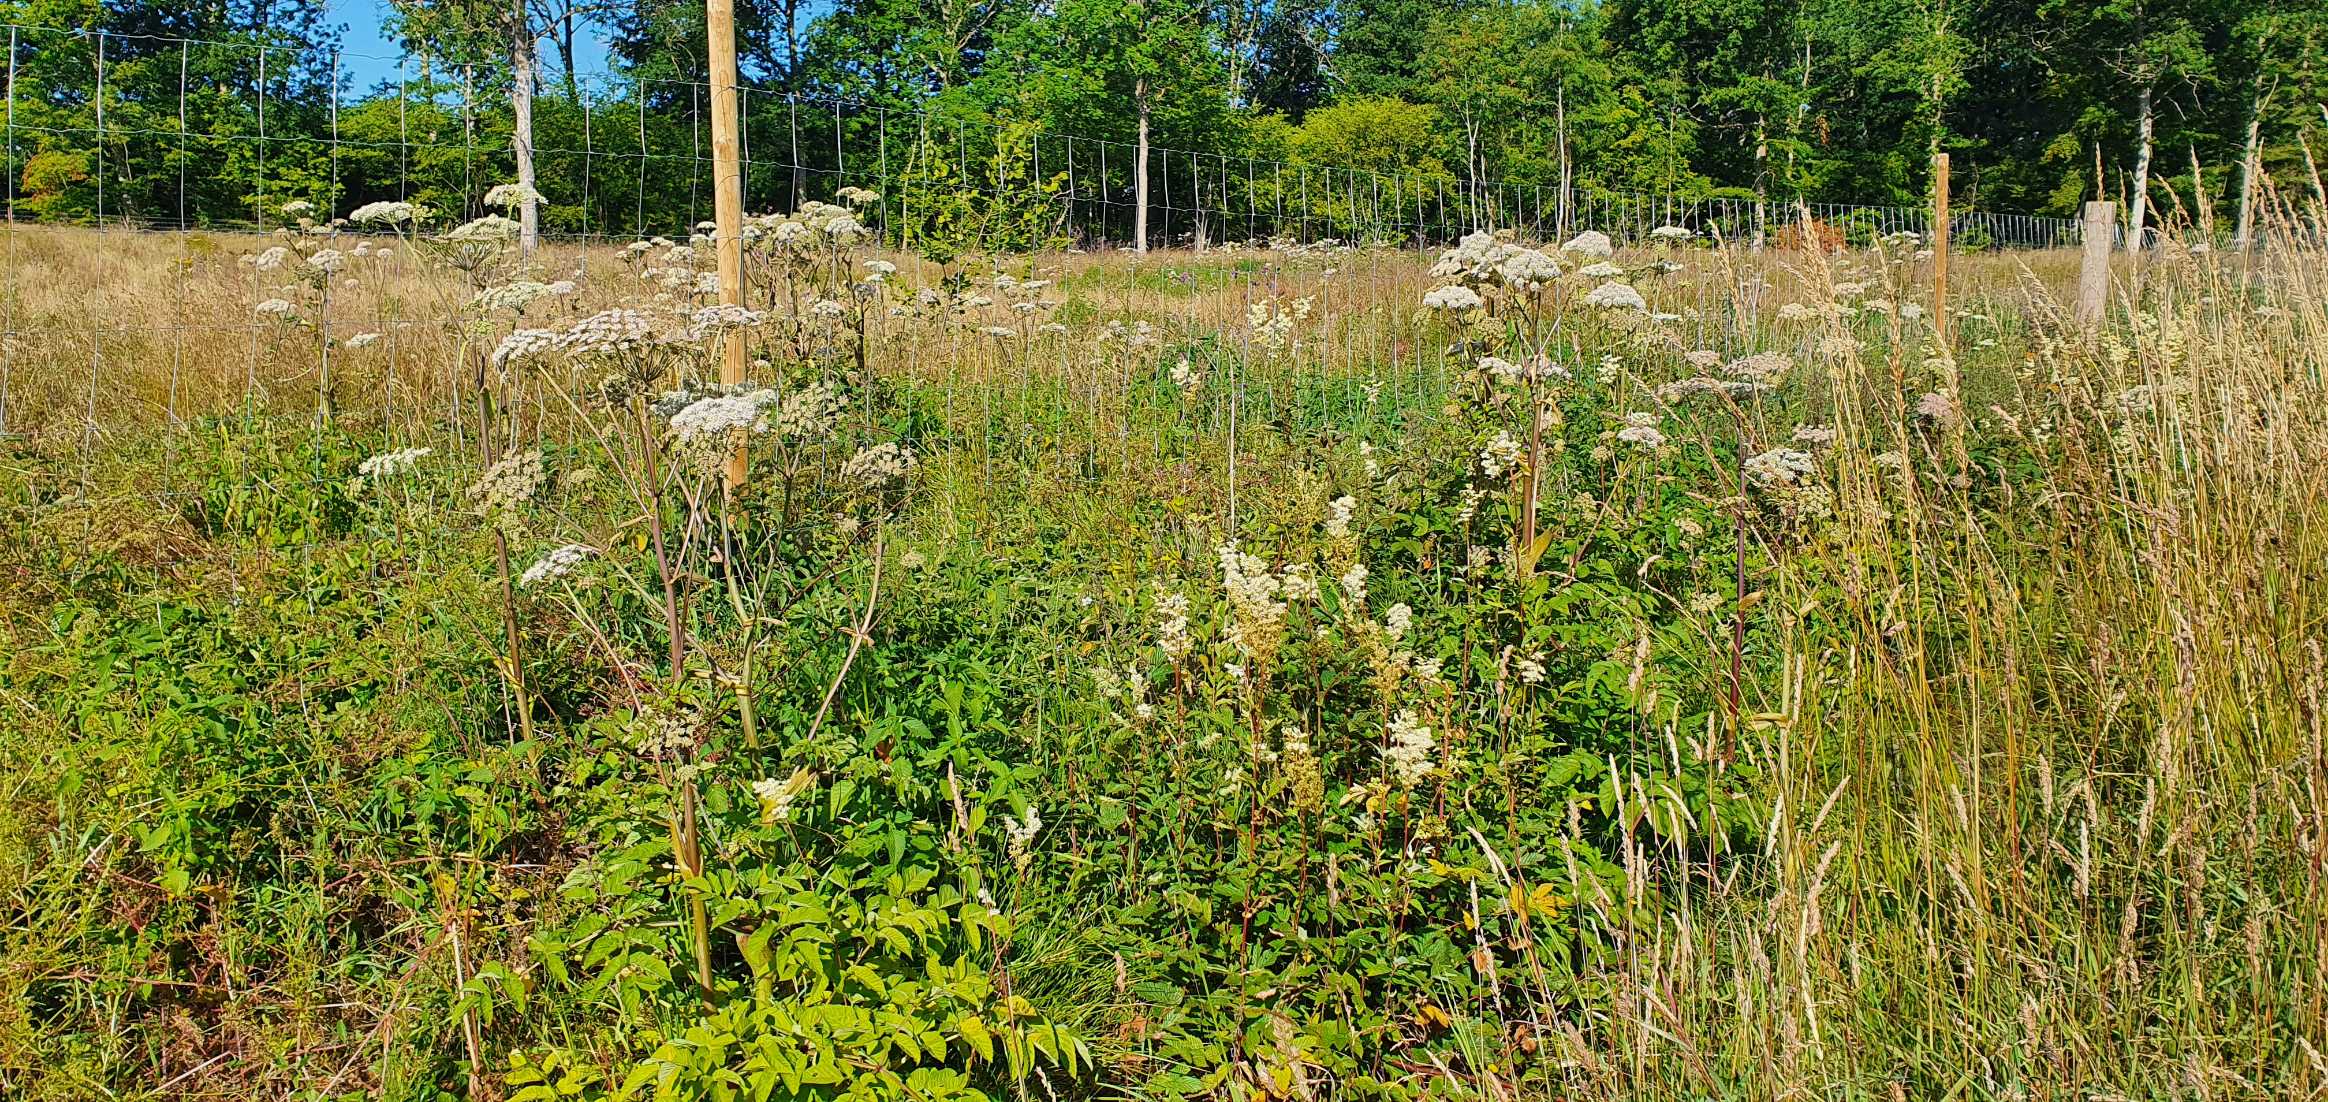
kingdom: Plantae
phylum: Tracheophyta
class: Magnoliopsida
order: Apiales
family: Apiaceae
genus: Angelica
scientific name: Angelica sylvestris
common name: Angelik
